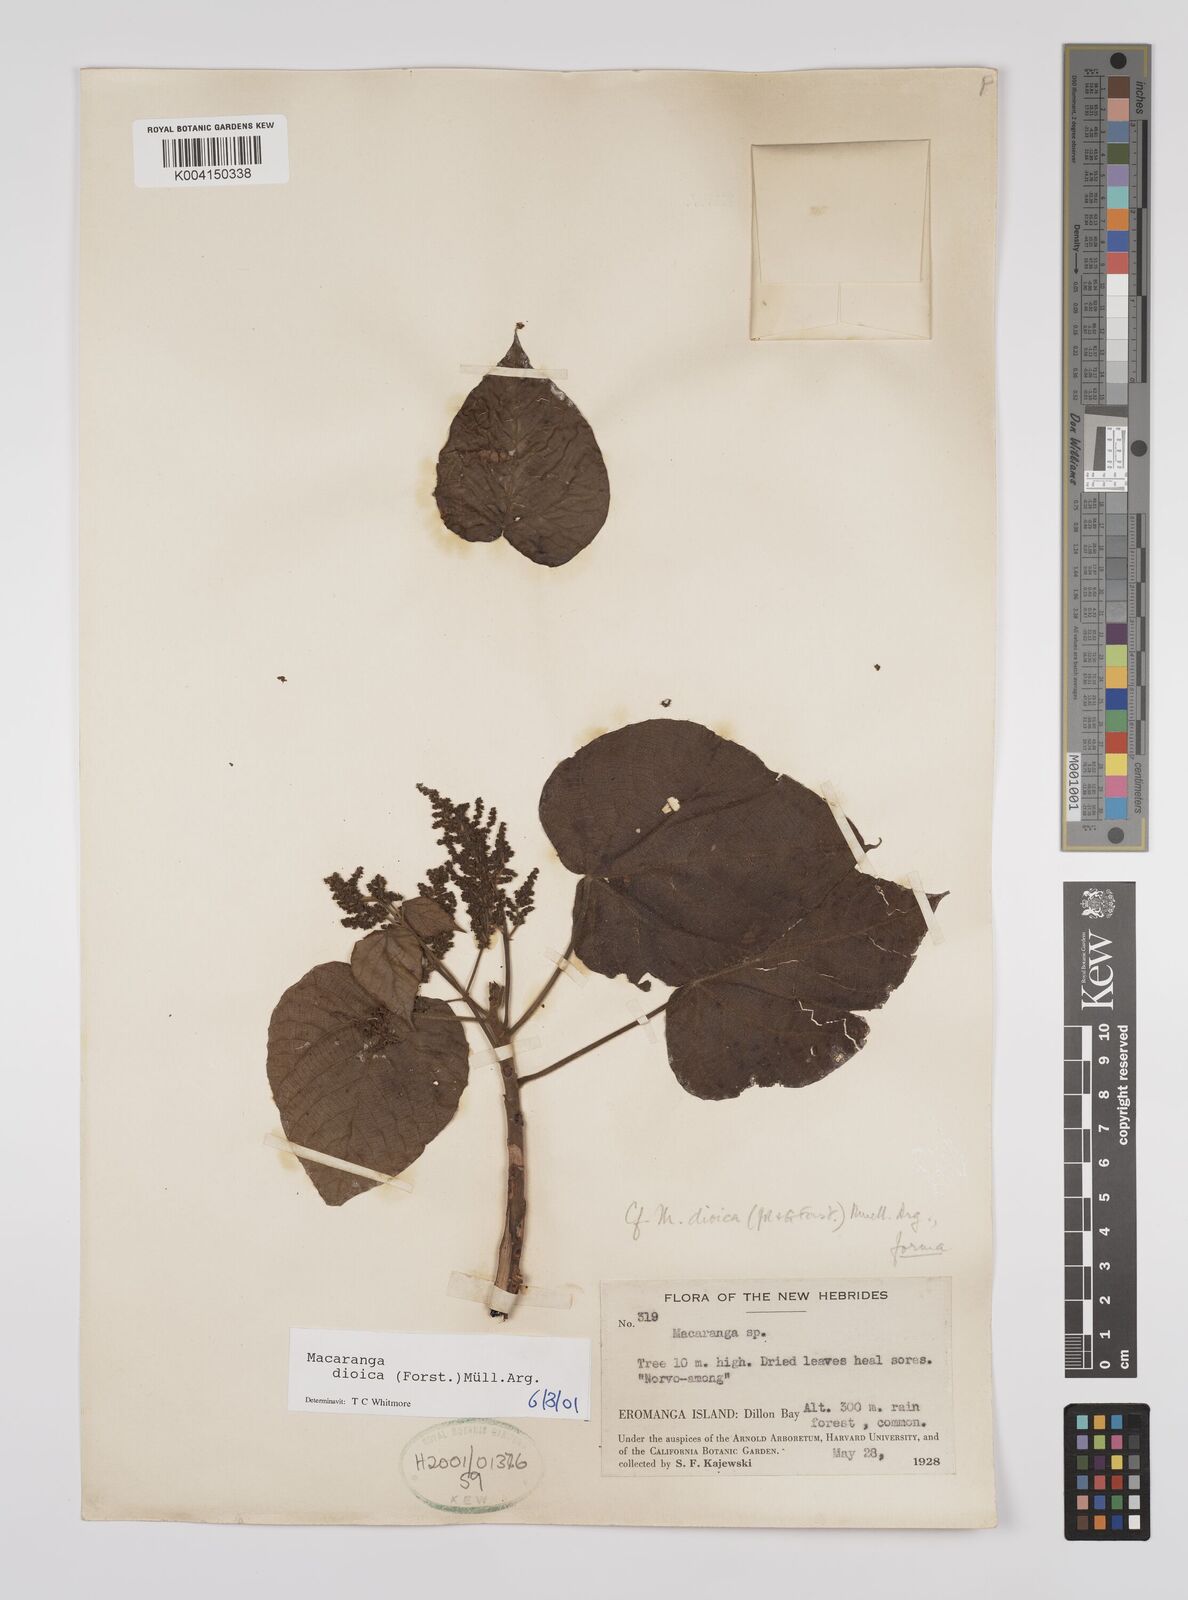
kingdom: Plantae
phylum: Tracheophyta
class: Magnoliopsida
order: Malpighiales
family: Euphorbiaceae
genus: Macaranga
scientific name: Macaranga dioica
